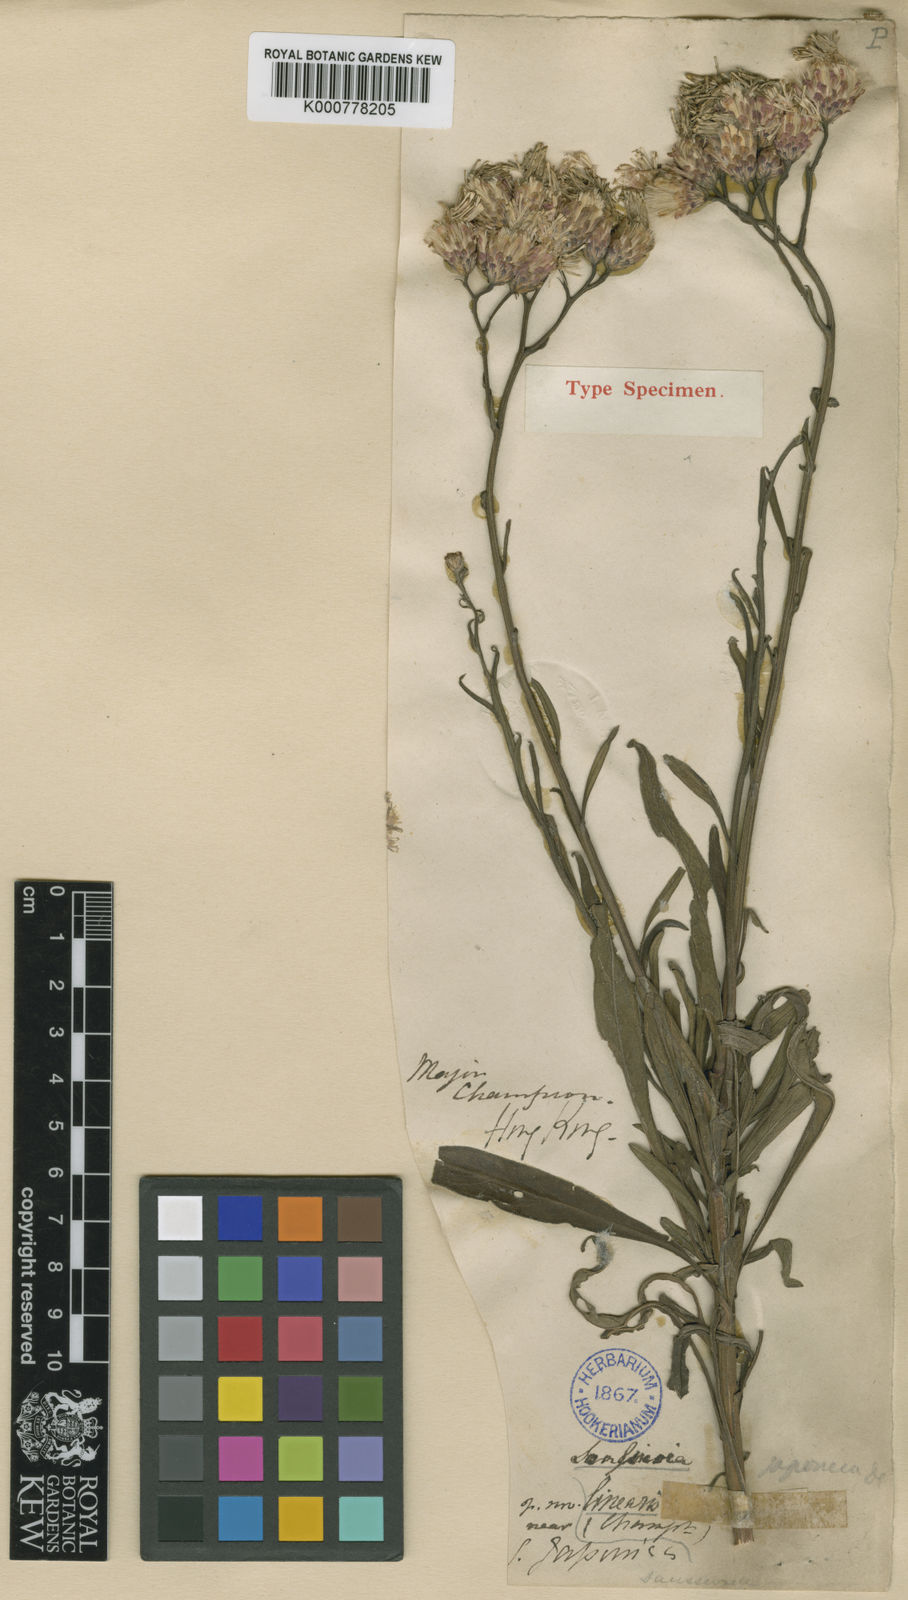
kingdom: Plantae
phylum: Tracheophyta
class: Magnoliopsida
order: Asterales
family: Asteraceae
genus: Cirsium
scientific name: Cirsium lineare
